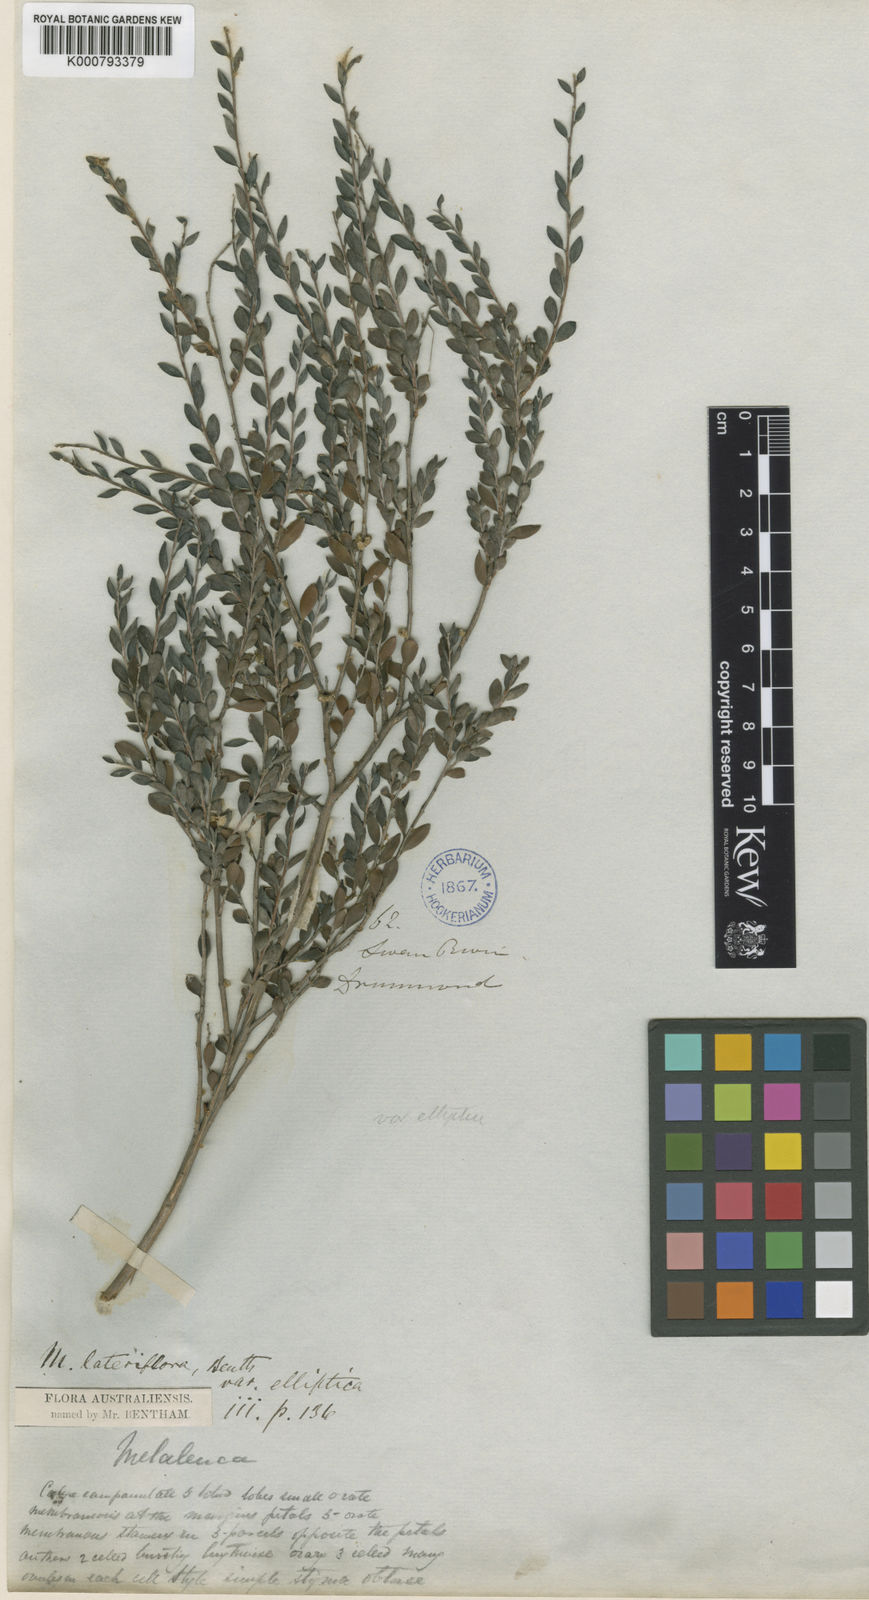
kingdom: Plantae
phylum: Tracheophyta
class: Magnoliopsida
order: Myrtales
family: Myrtaceae
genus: Melaleuca
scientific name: Melaleuca lateriflora
